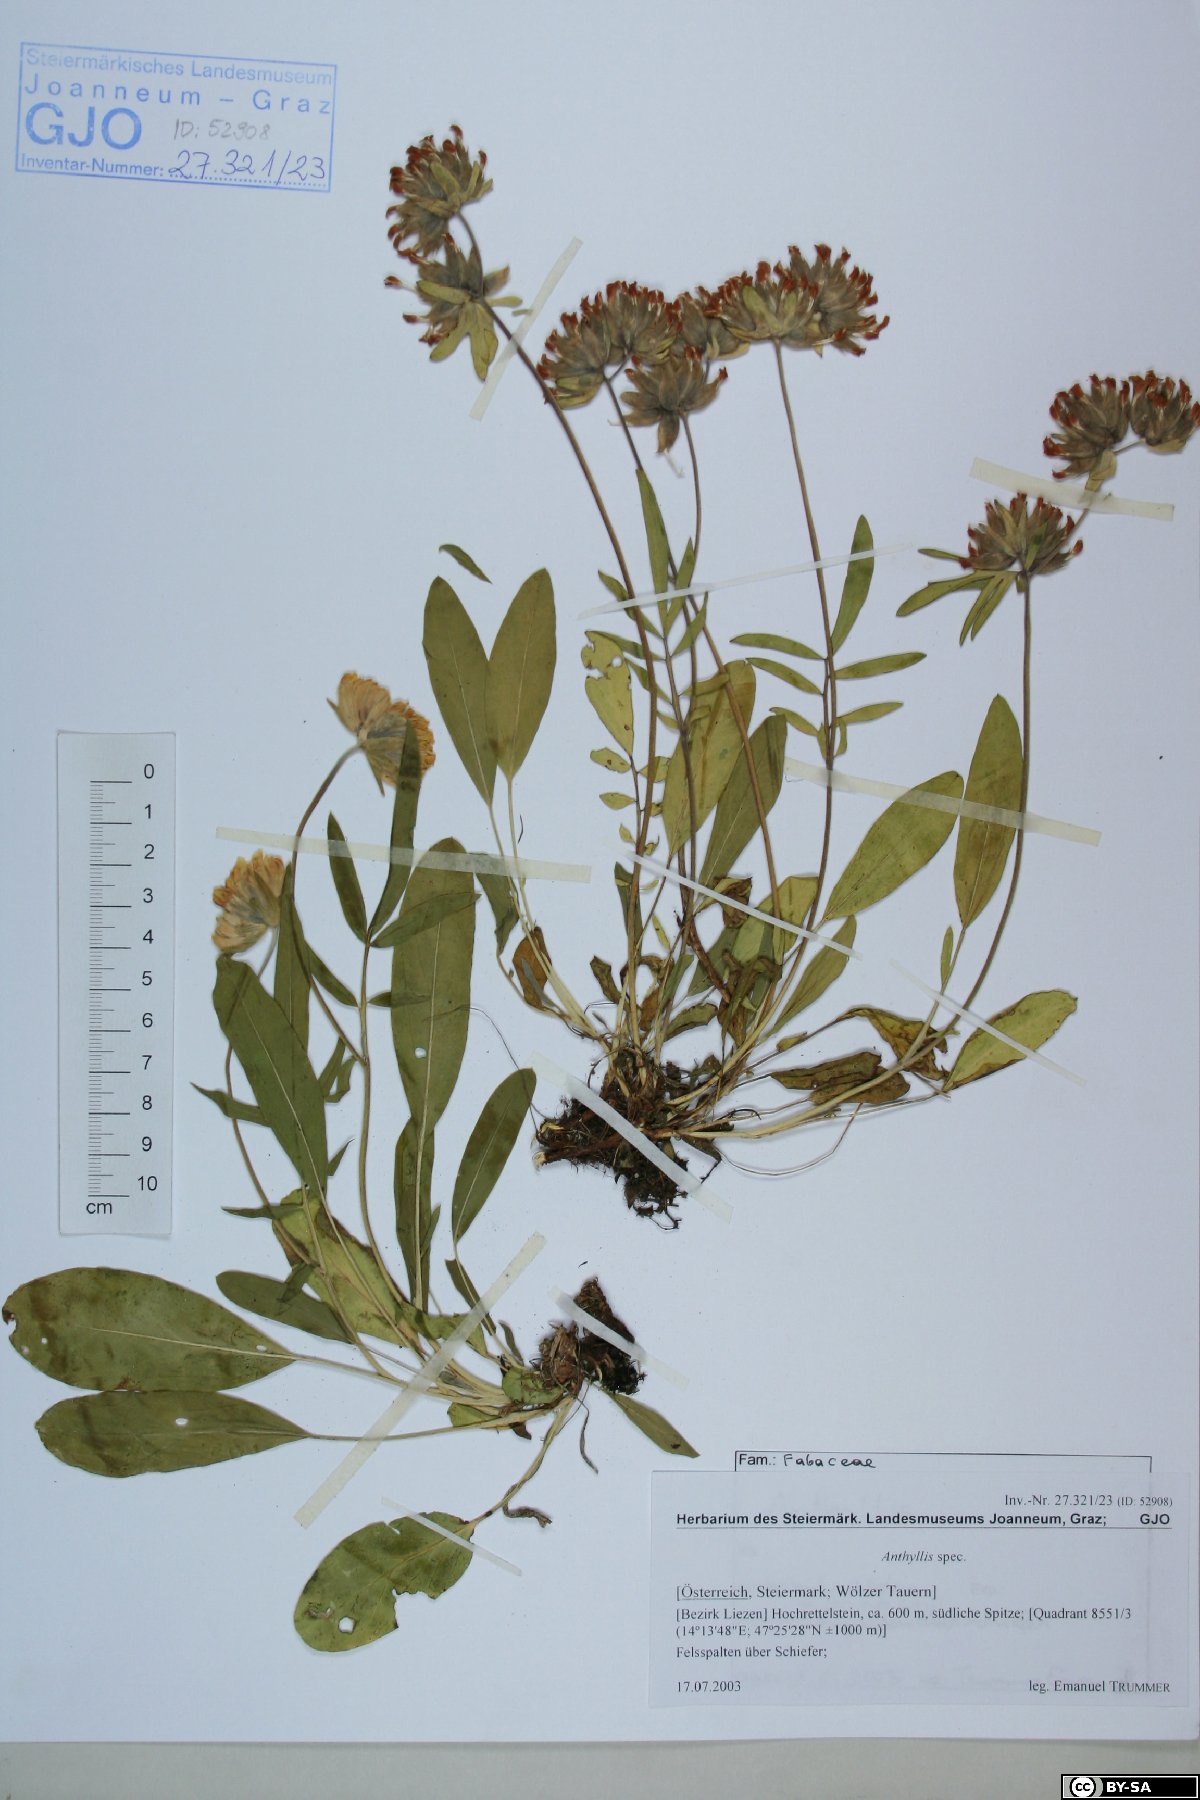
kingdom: Plantae
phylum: Tracheophyta
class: Magnoliopsida
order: Fabales
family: Fabaceae
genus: Anthyllis
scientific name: Anthyllis
